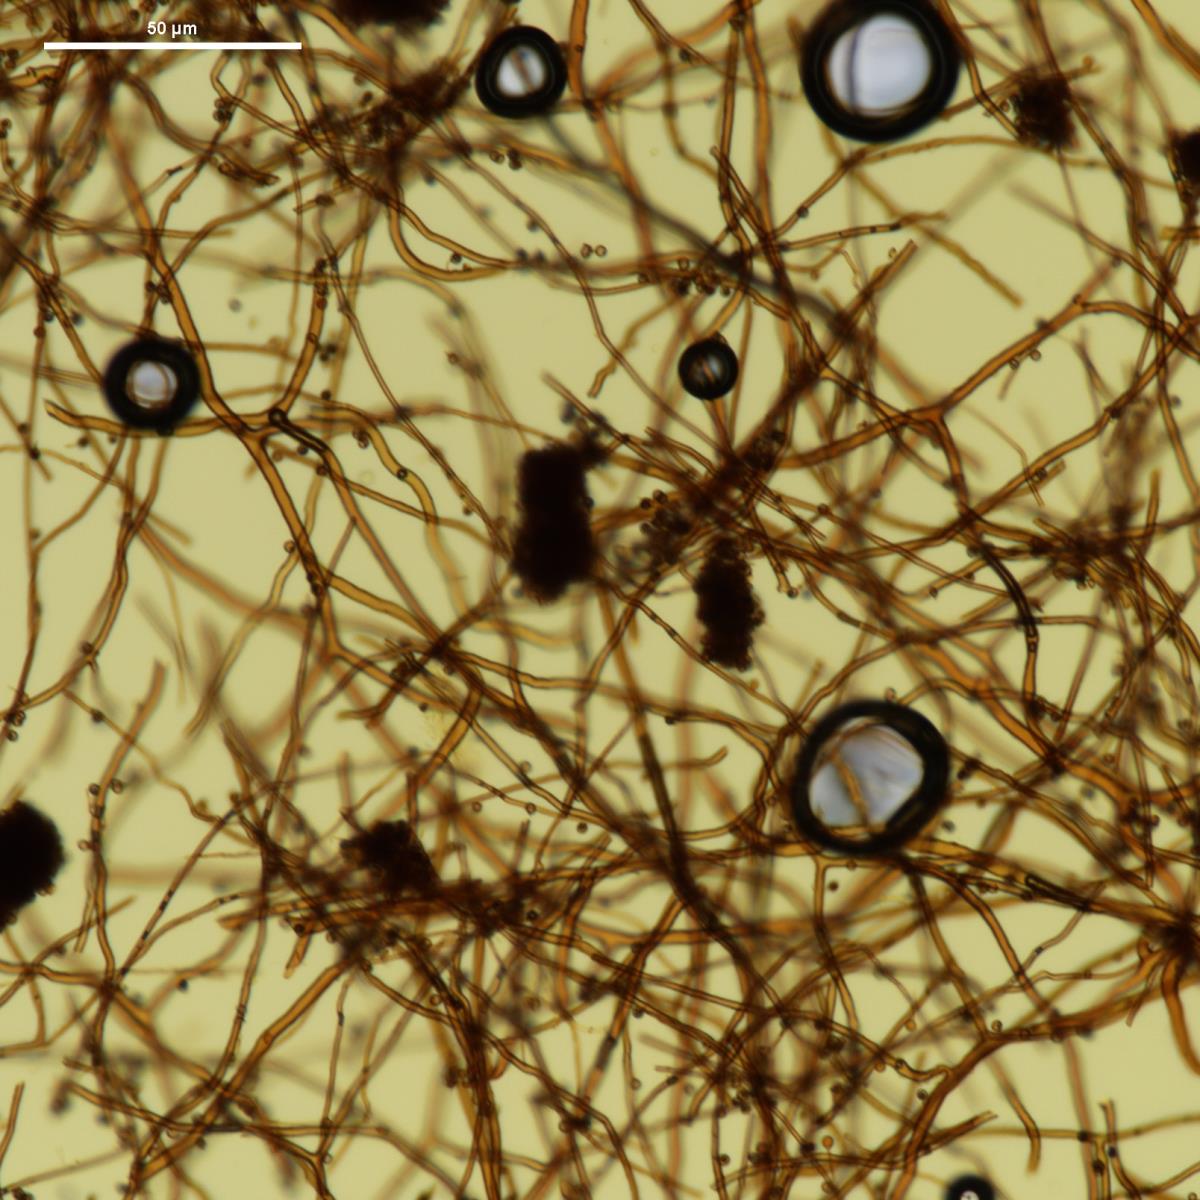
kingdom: Fungi
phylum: Basidiomycota
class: Agaricomycetes
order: Agaricales
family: Lycoperdaceae
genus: Bovista
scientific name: Bovista brunnea
